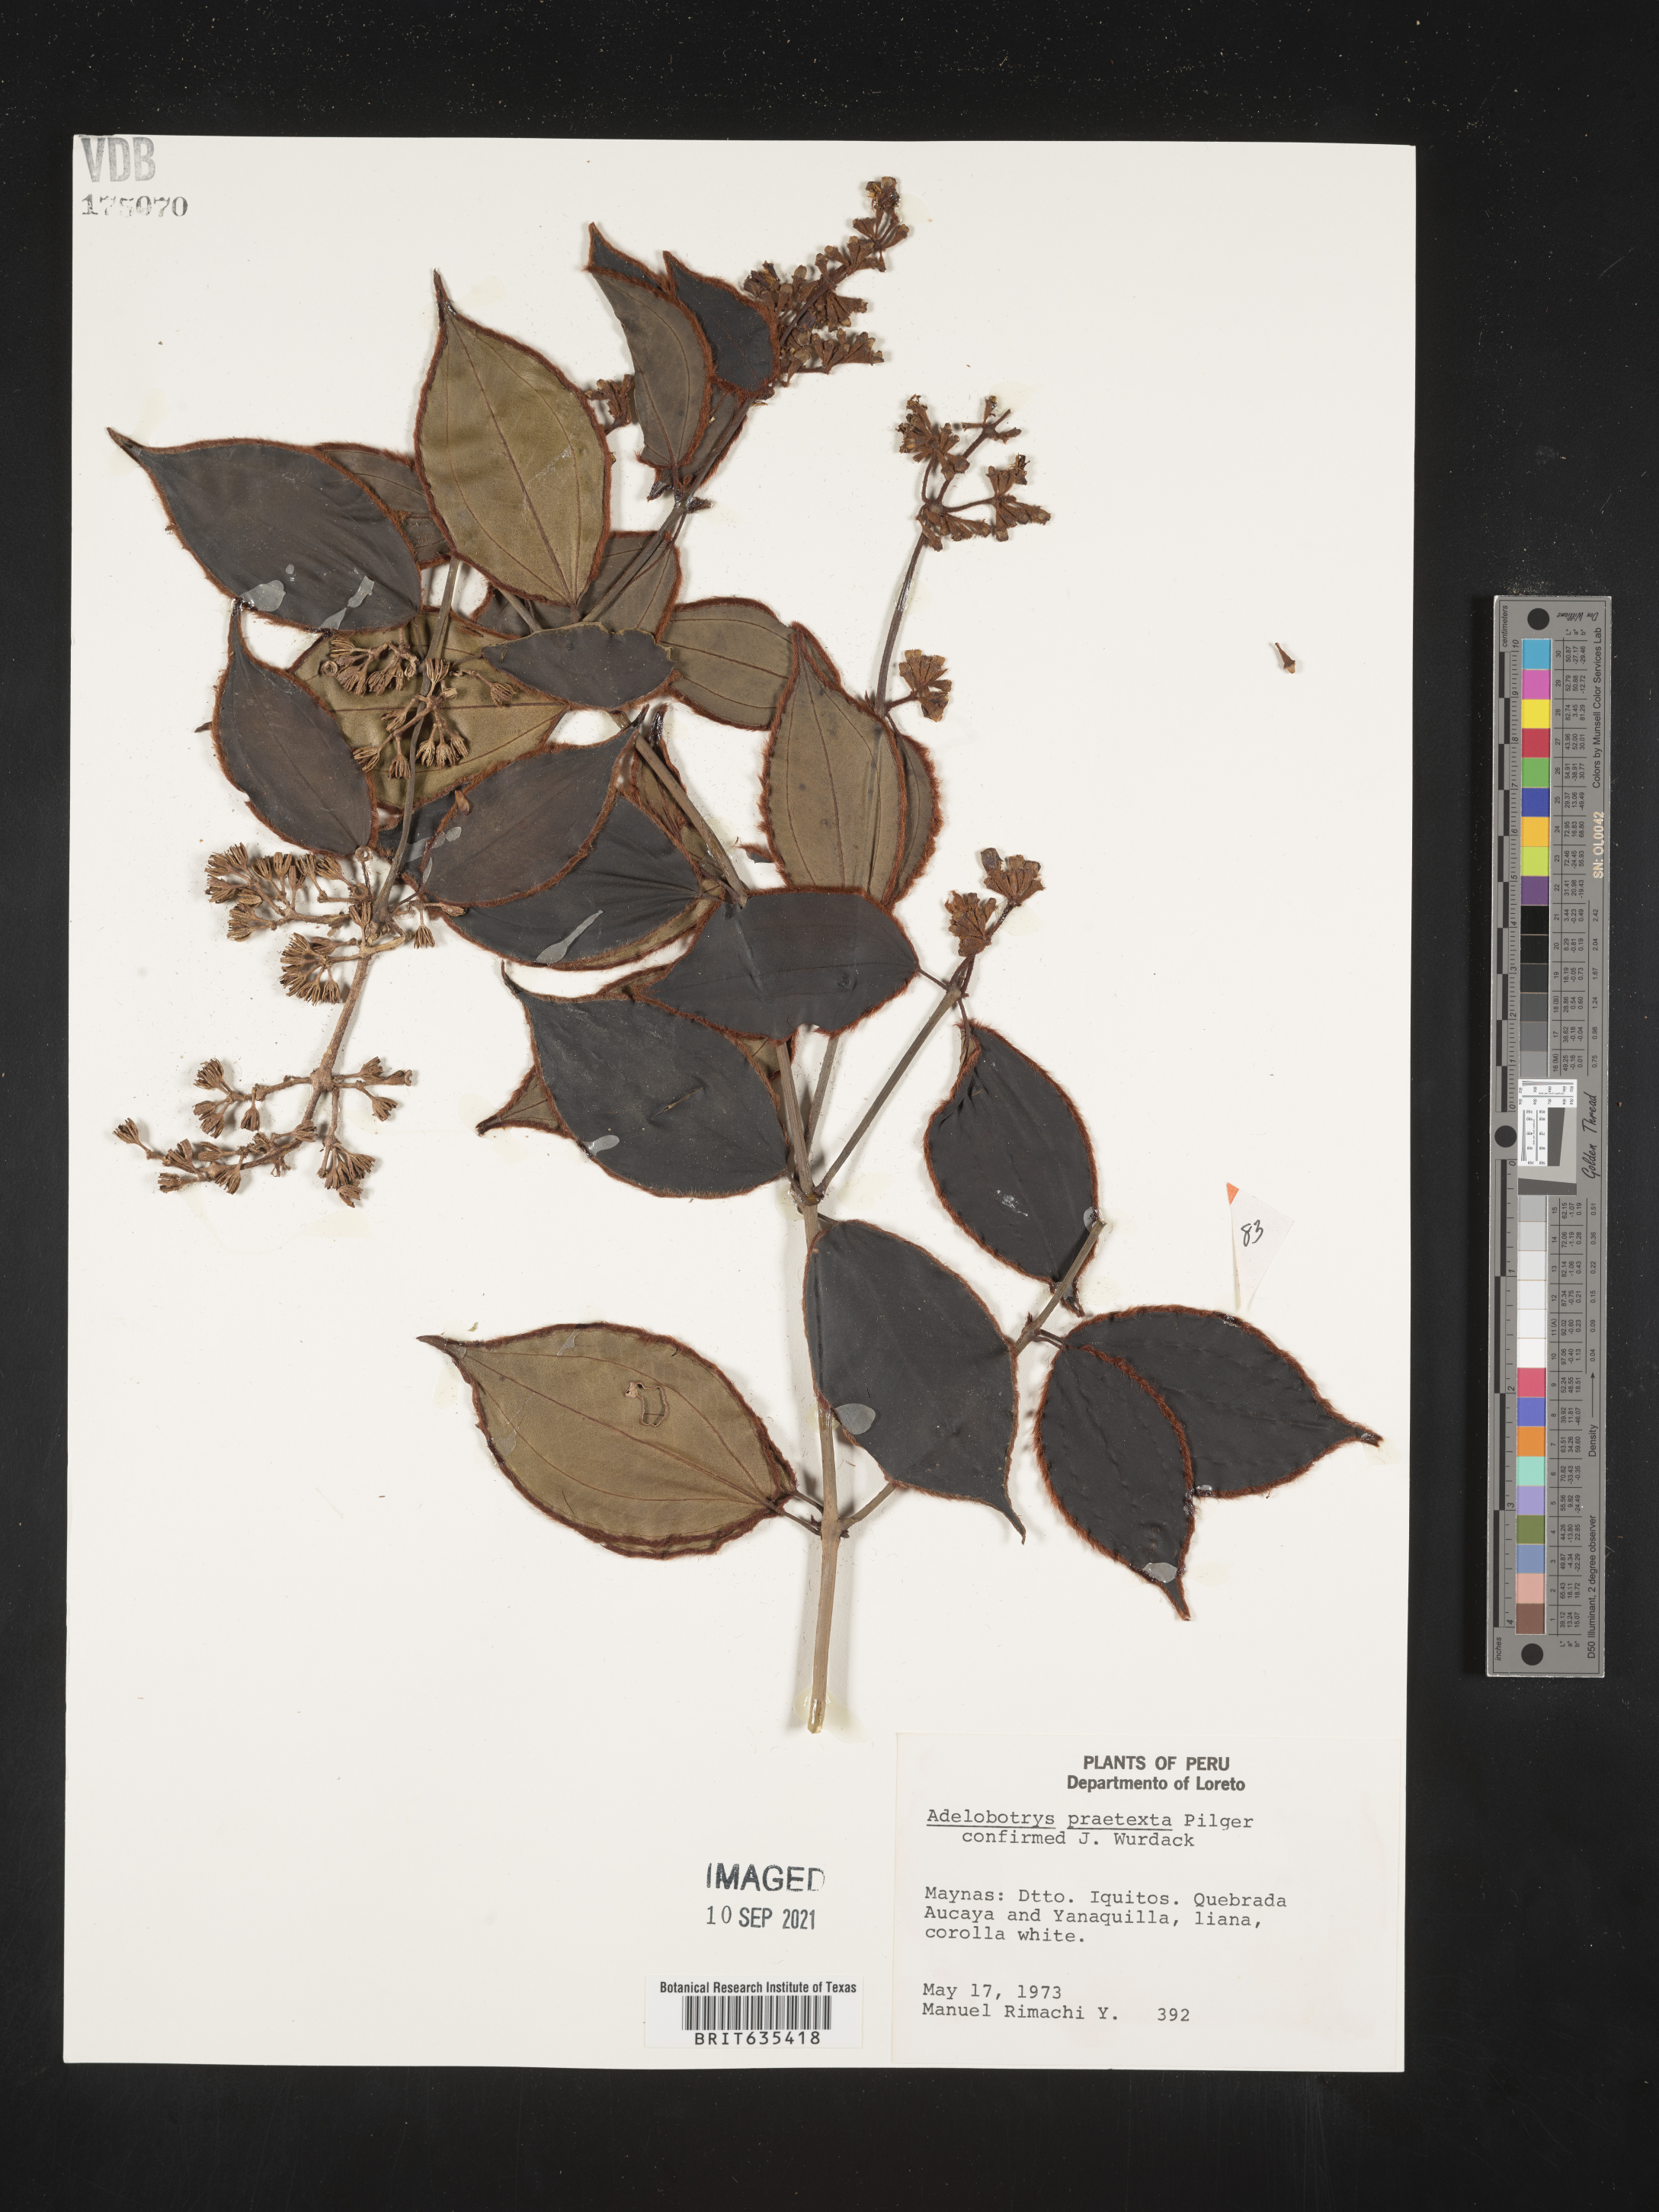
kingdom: Plantae
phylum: Tracheophyta
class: Magnoliopsida
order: Myrtales
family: Melastomataceae
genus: Adelobotrys
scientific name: Adelobotrys
